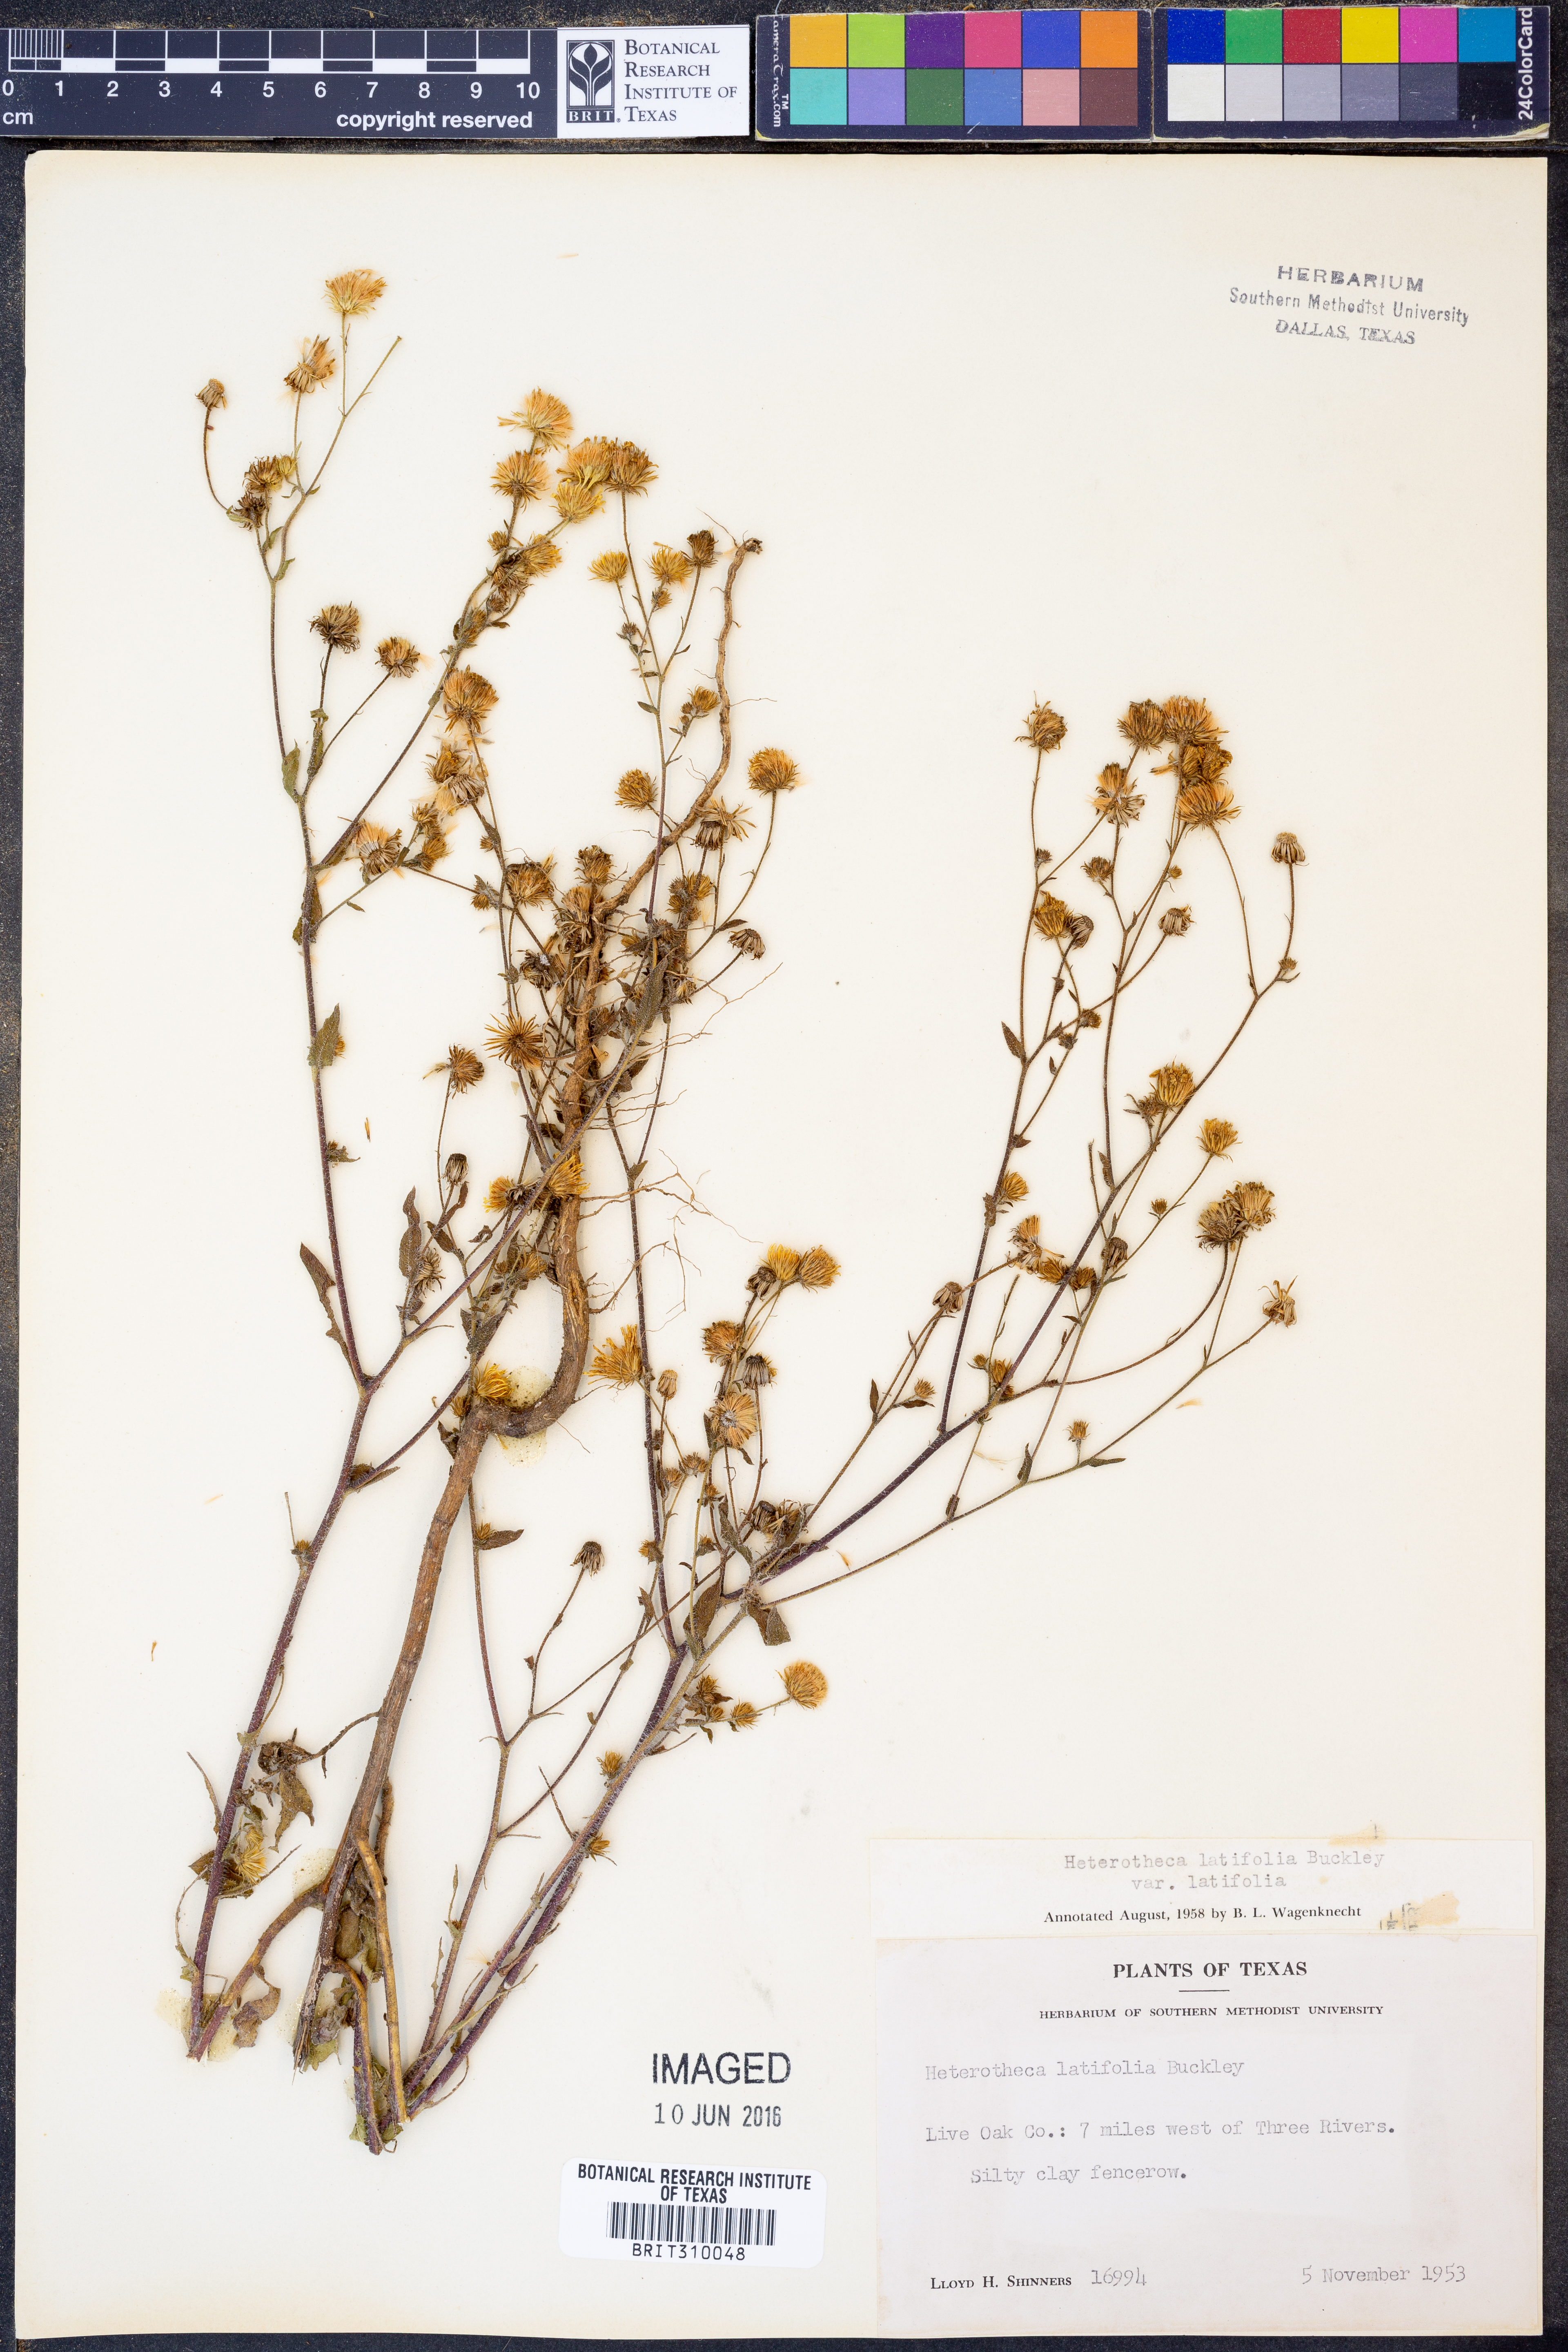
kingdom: Plantae
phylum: Tracheophyta
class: Magnoliopsida
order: Asterales
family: Asteraceae
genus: Heterotheca
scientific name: Heterotheca subaxillaris
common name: Camphorweed
